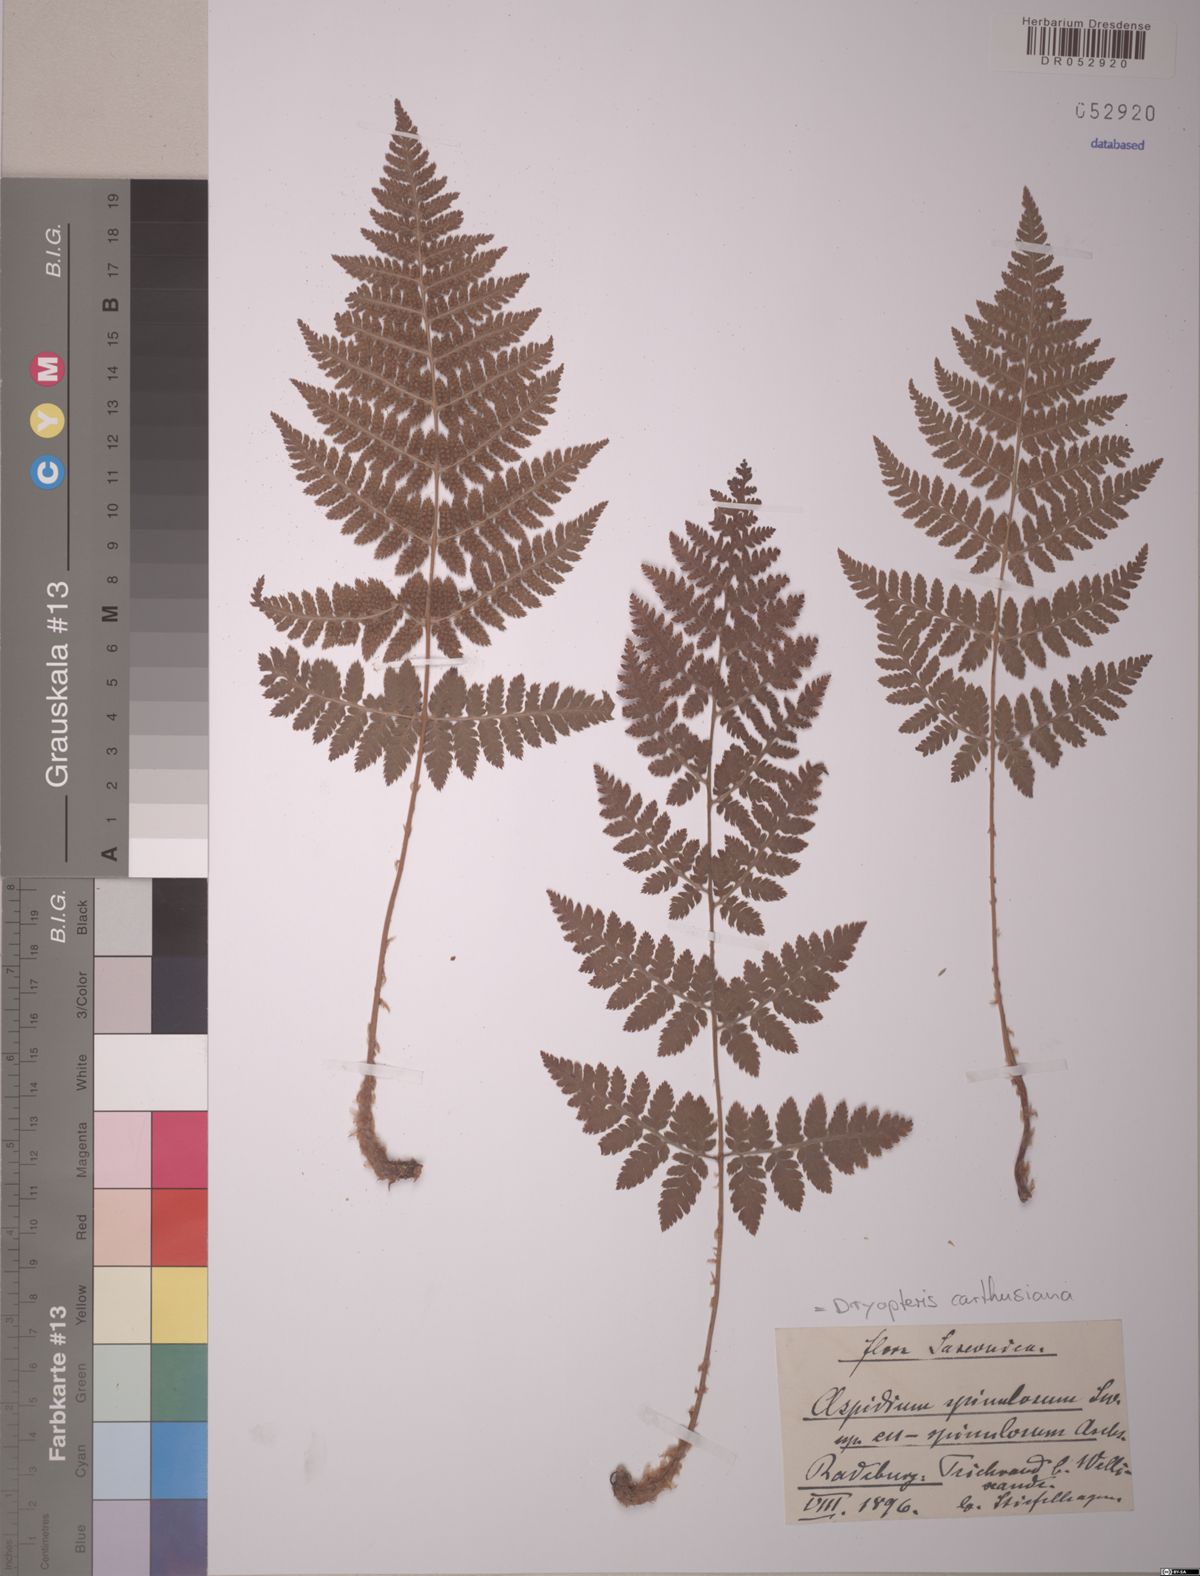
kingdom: Plantae
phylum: Tracheophyta
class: Polypodiopsida
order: Polypodiales
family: Dryopteridaceae
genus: Dryopteris
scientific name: Dryopteris carthusiana
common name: Narrow buckler-fern
